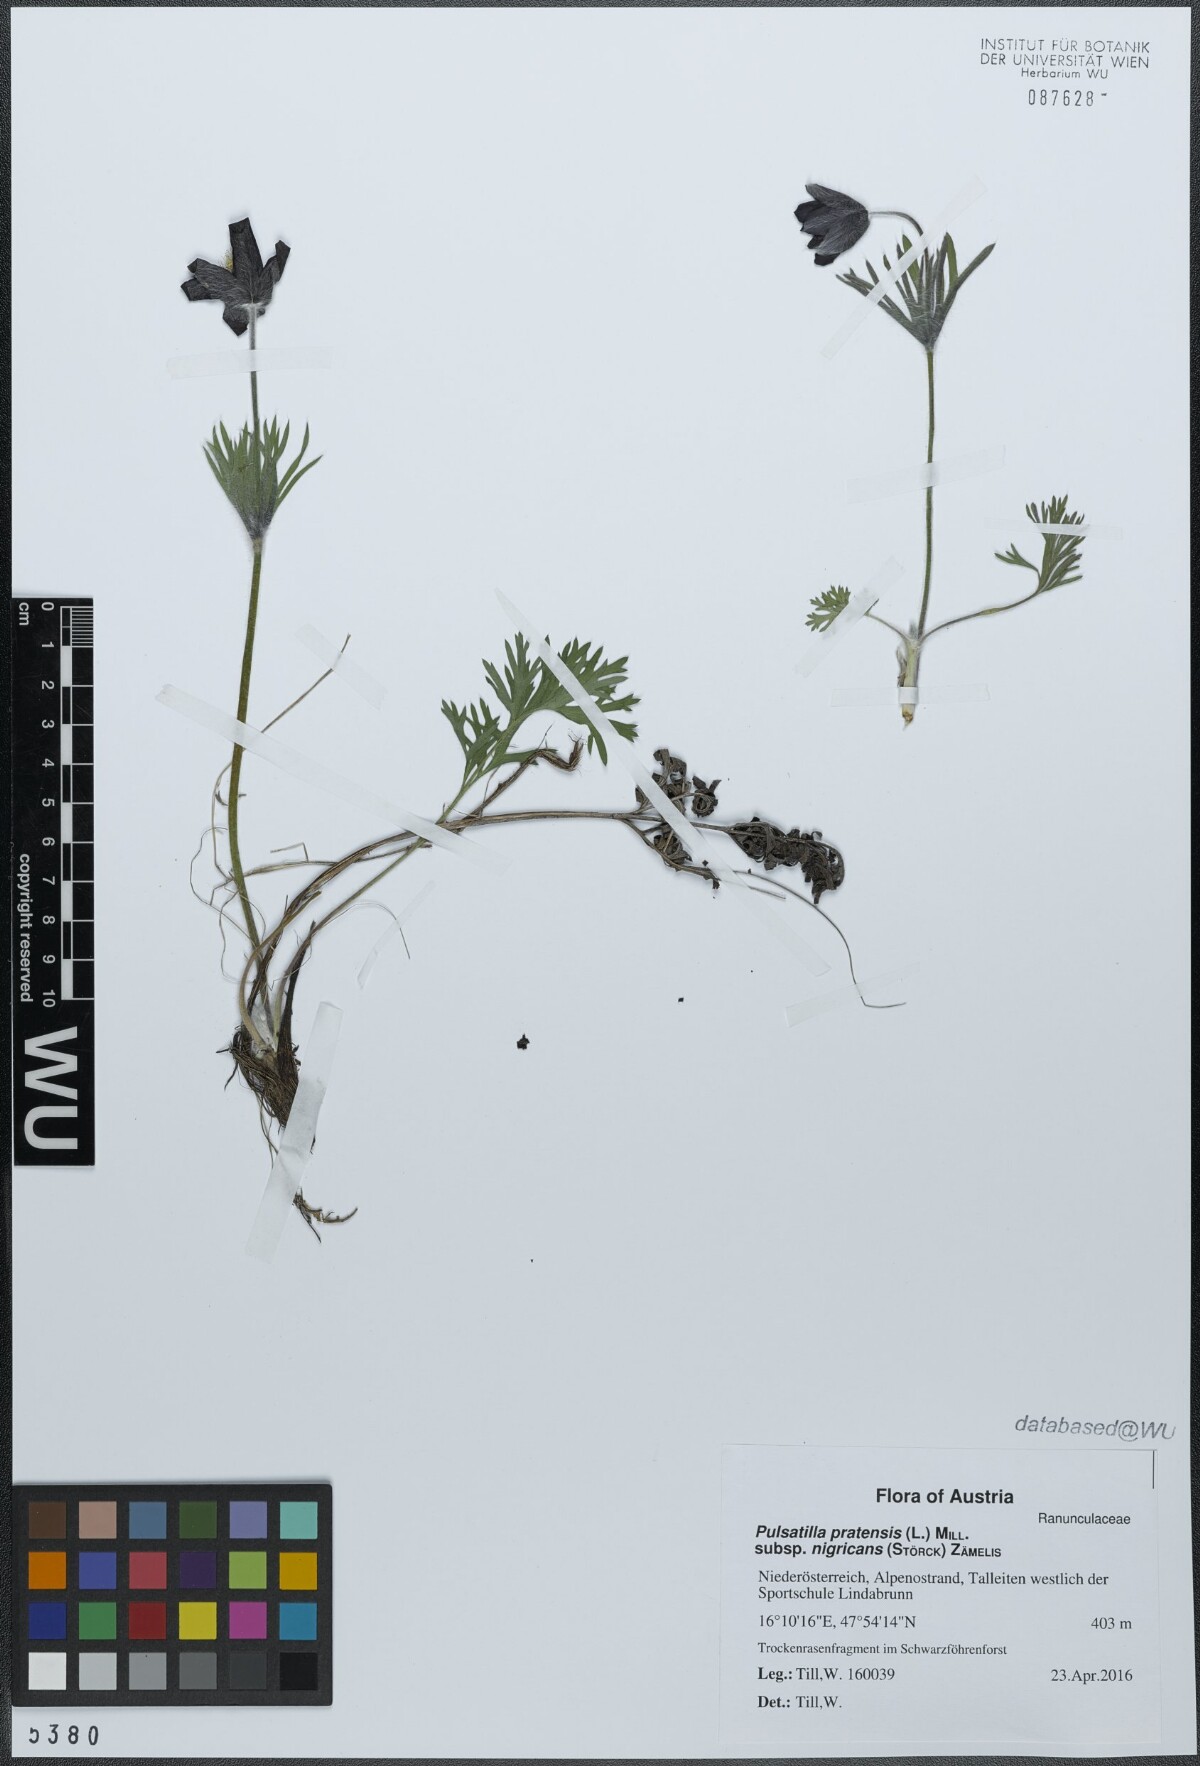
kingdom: Plantae
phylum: Tracheophyta
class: Magnoliopsida
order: Ranunculales
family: Ranunculaceae
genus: Pulsatilla
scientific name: Pulsatilla pratensis
